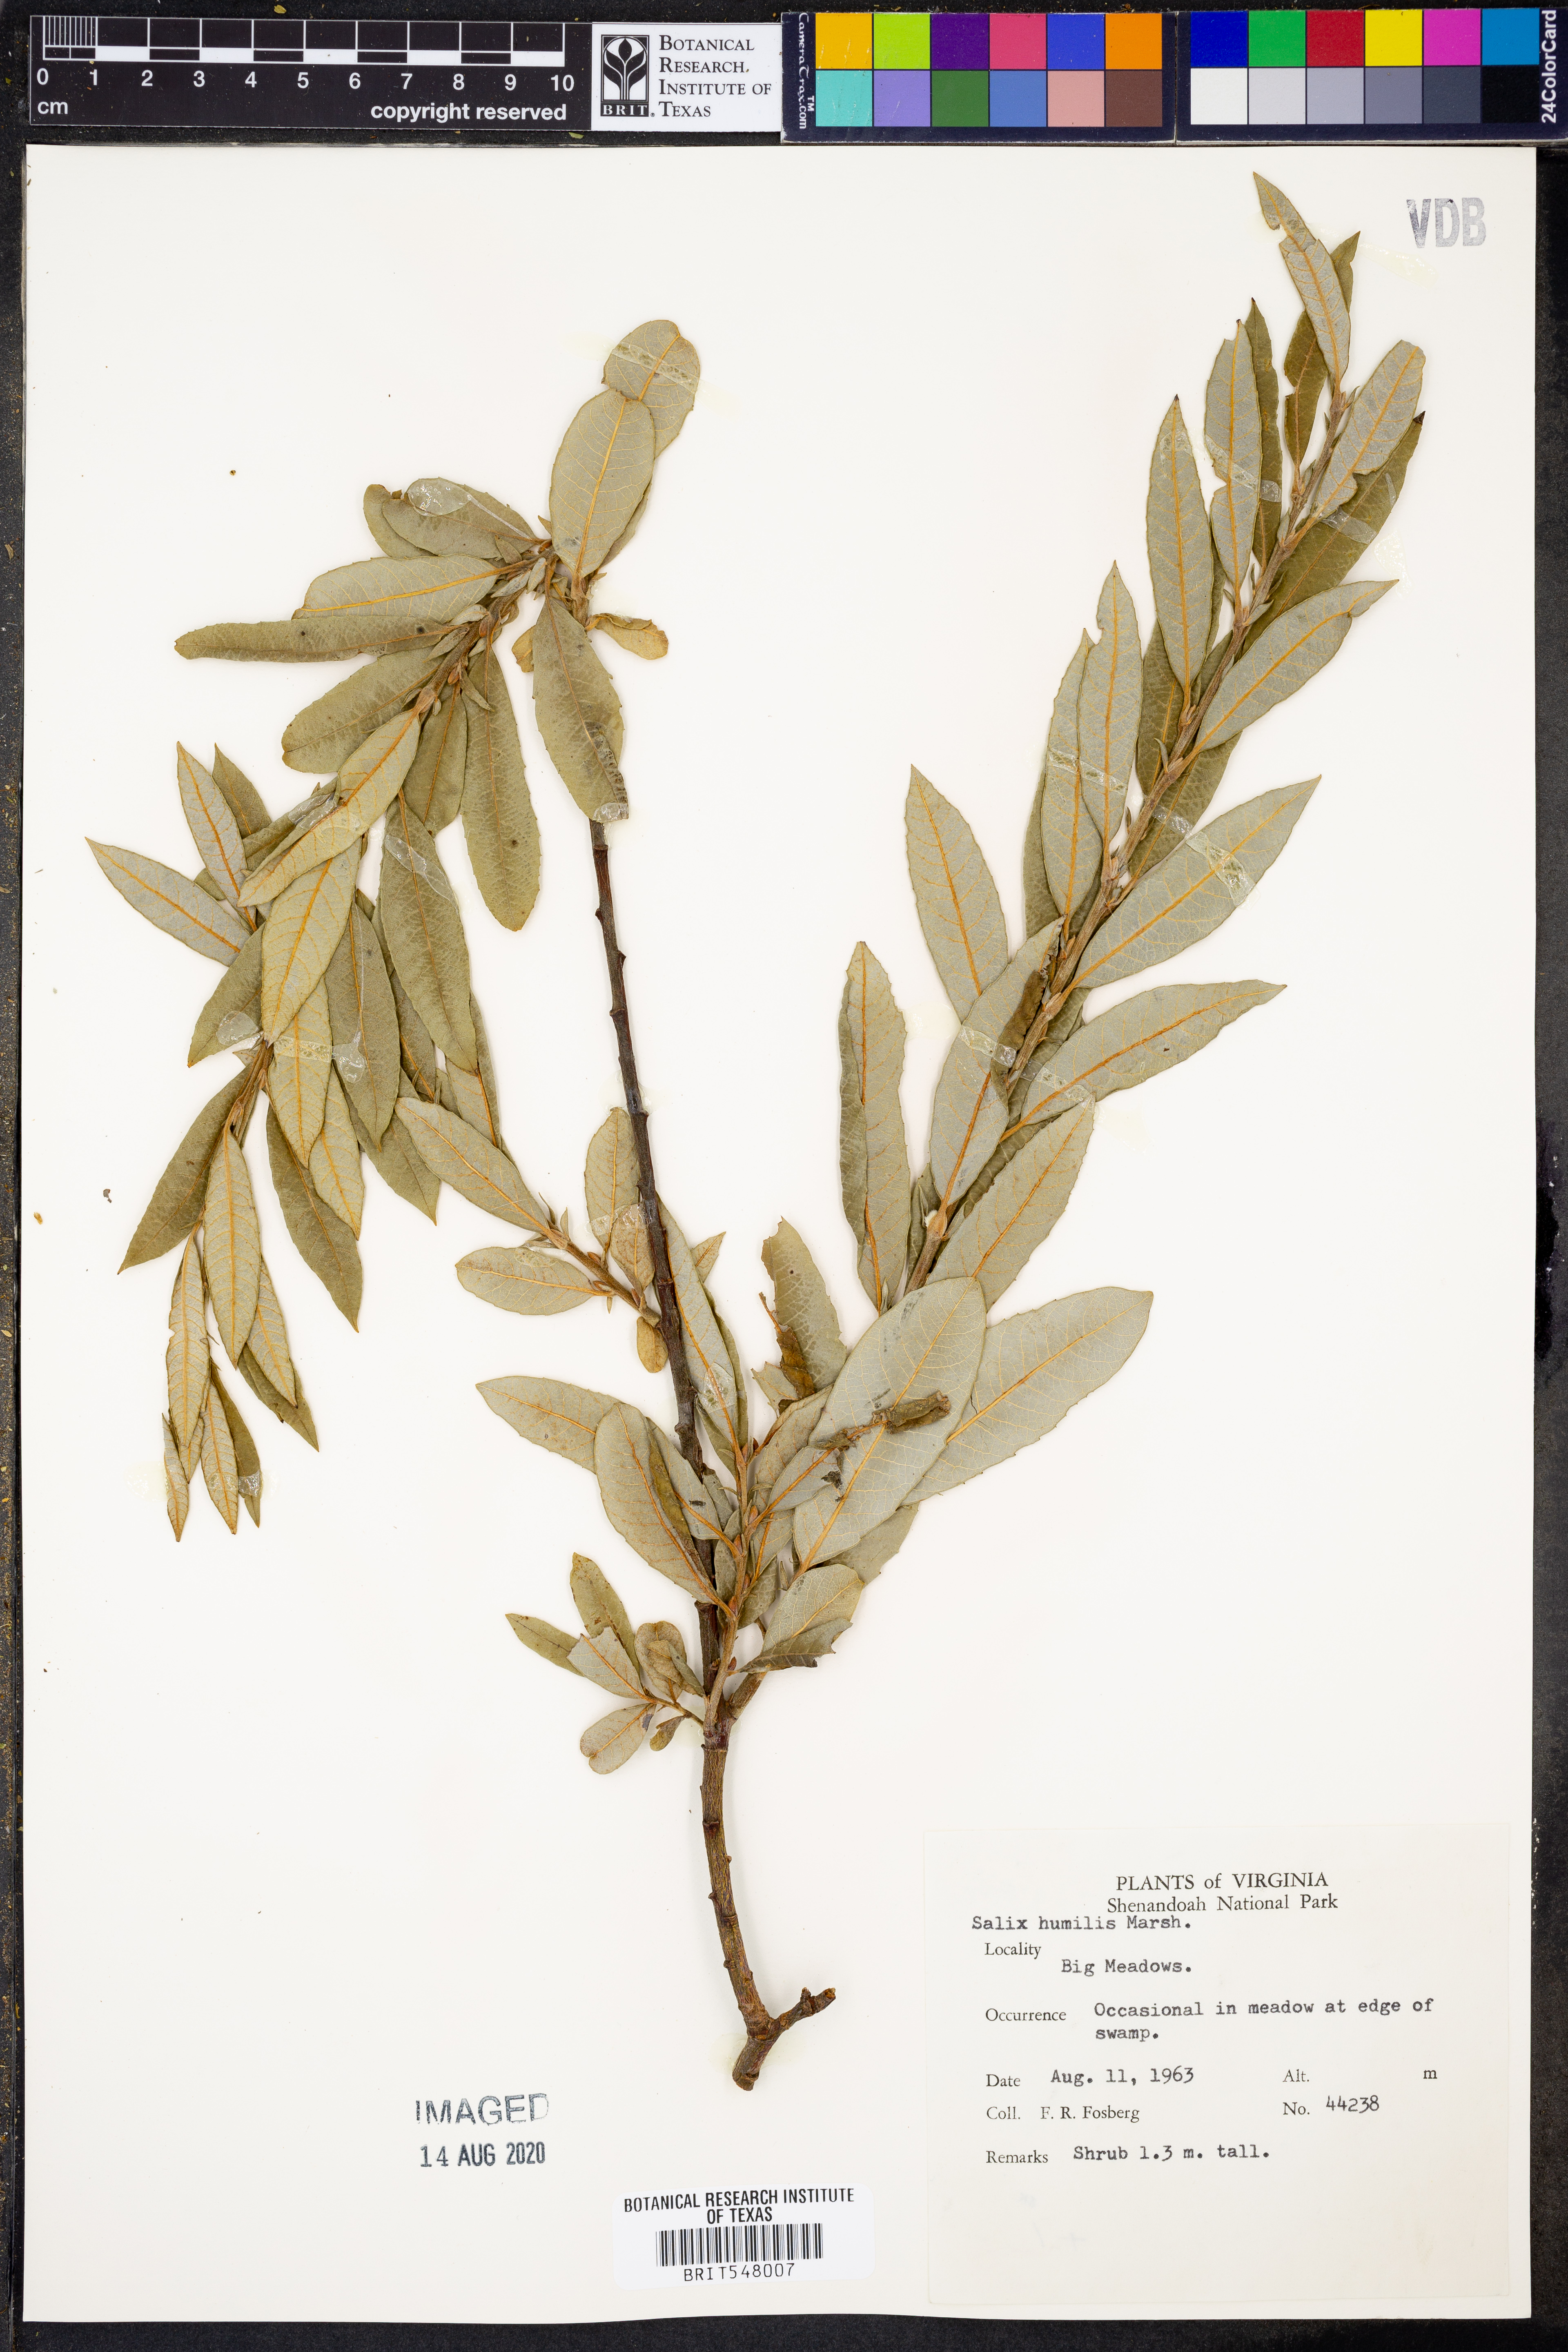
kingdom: Plantae
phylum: Tracheophyta
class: Magnoliopsida
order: Malpighiales
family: Salicaceae
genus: Salix
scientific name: Salix humilis
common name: Prairie willow
